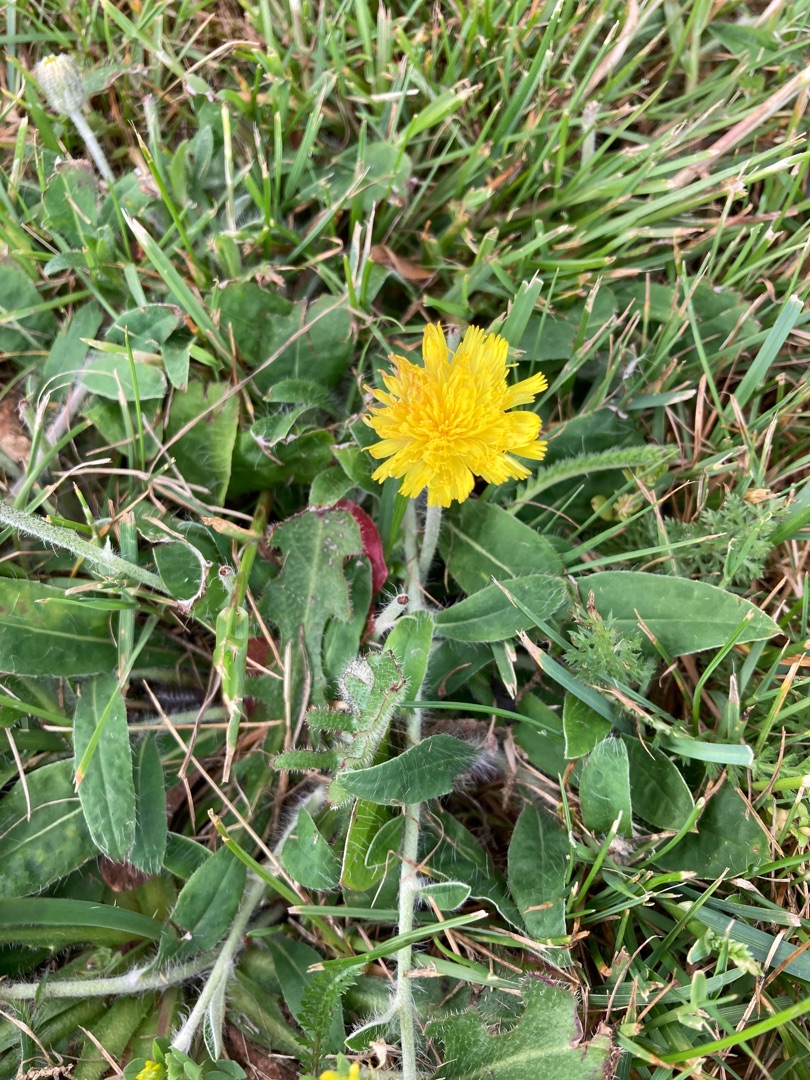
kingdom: Plantae
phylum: Tracheophyta
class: Magnoliopsida
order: Asterales
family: Asteraceae
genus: Pilosella
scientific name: Pilosella officinarum
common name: Håret høgeurt
